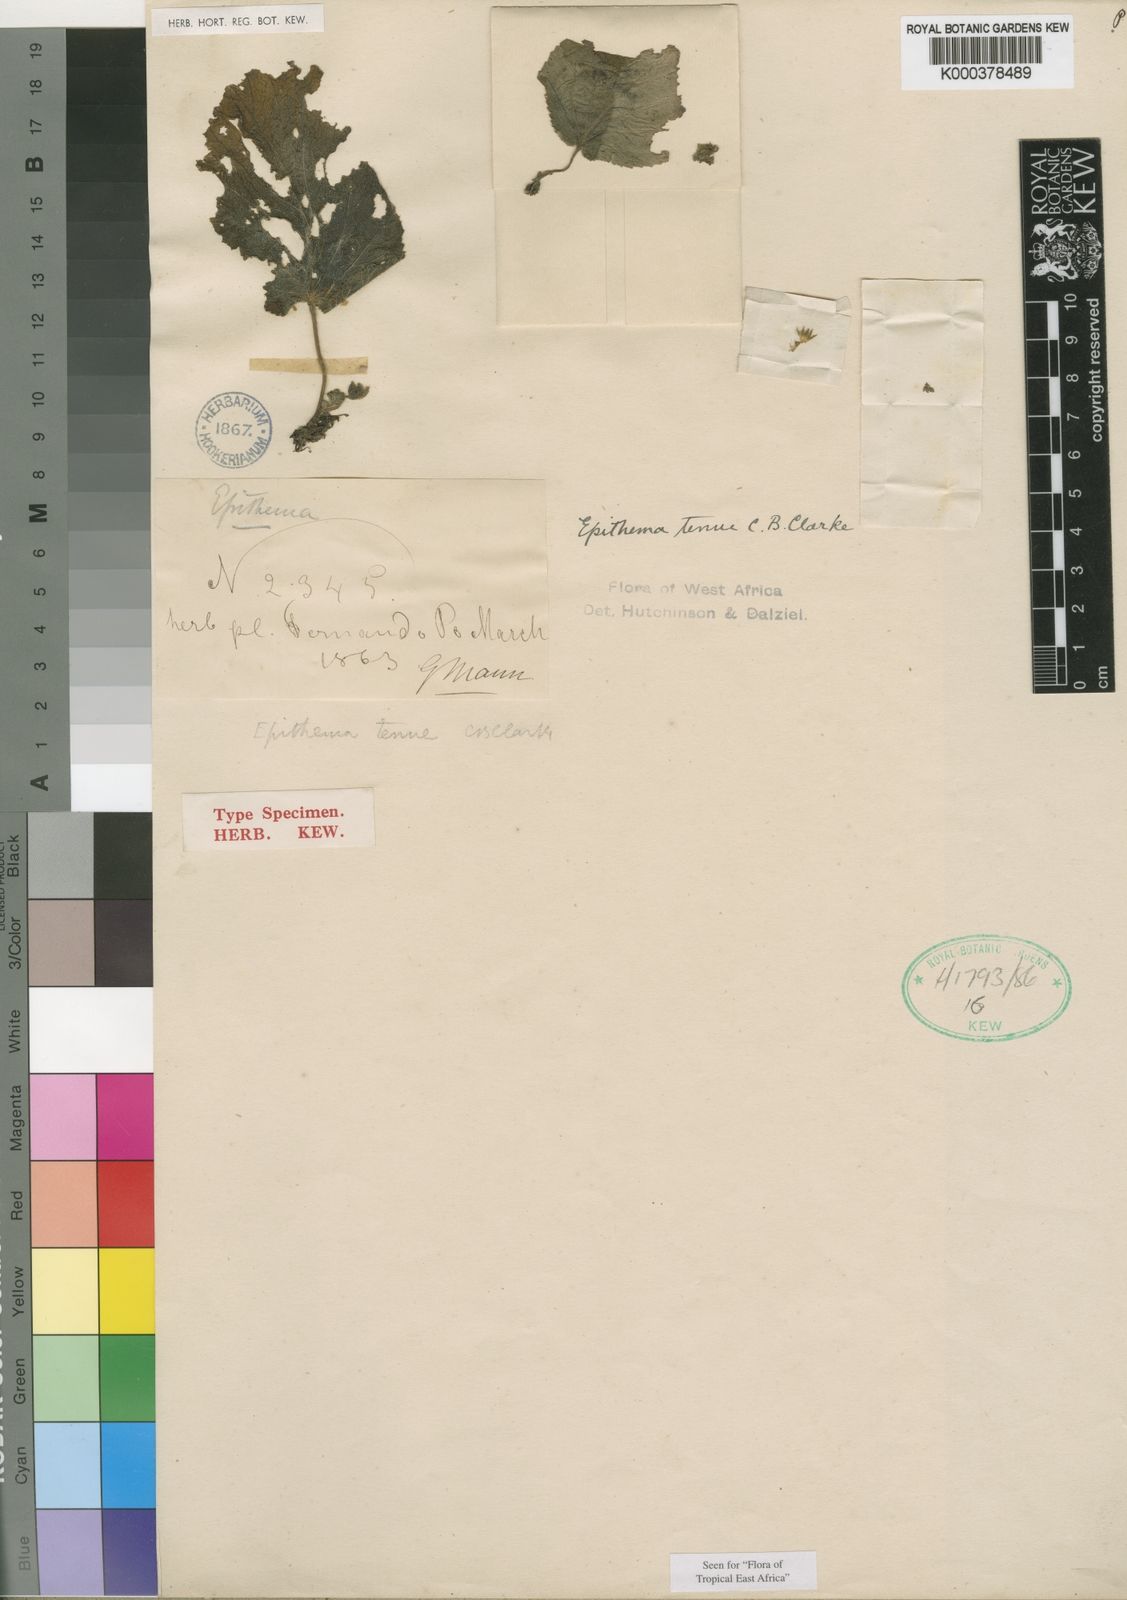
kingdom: Plantae
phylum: Tracheophyta
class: Magnoliopsida
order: Lamiales
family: Gesneriaceae
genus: Epithema
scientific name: Epithema tenue
